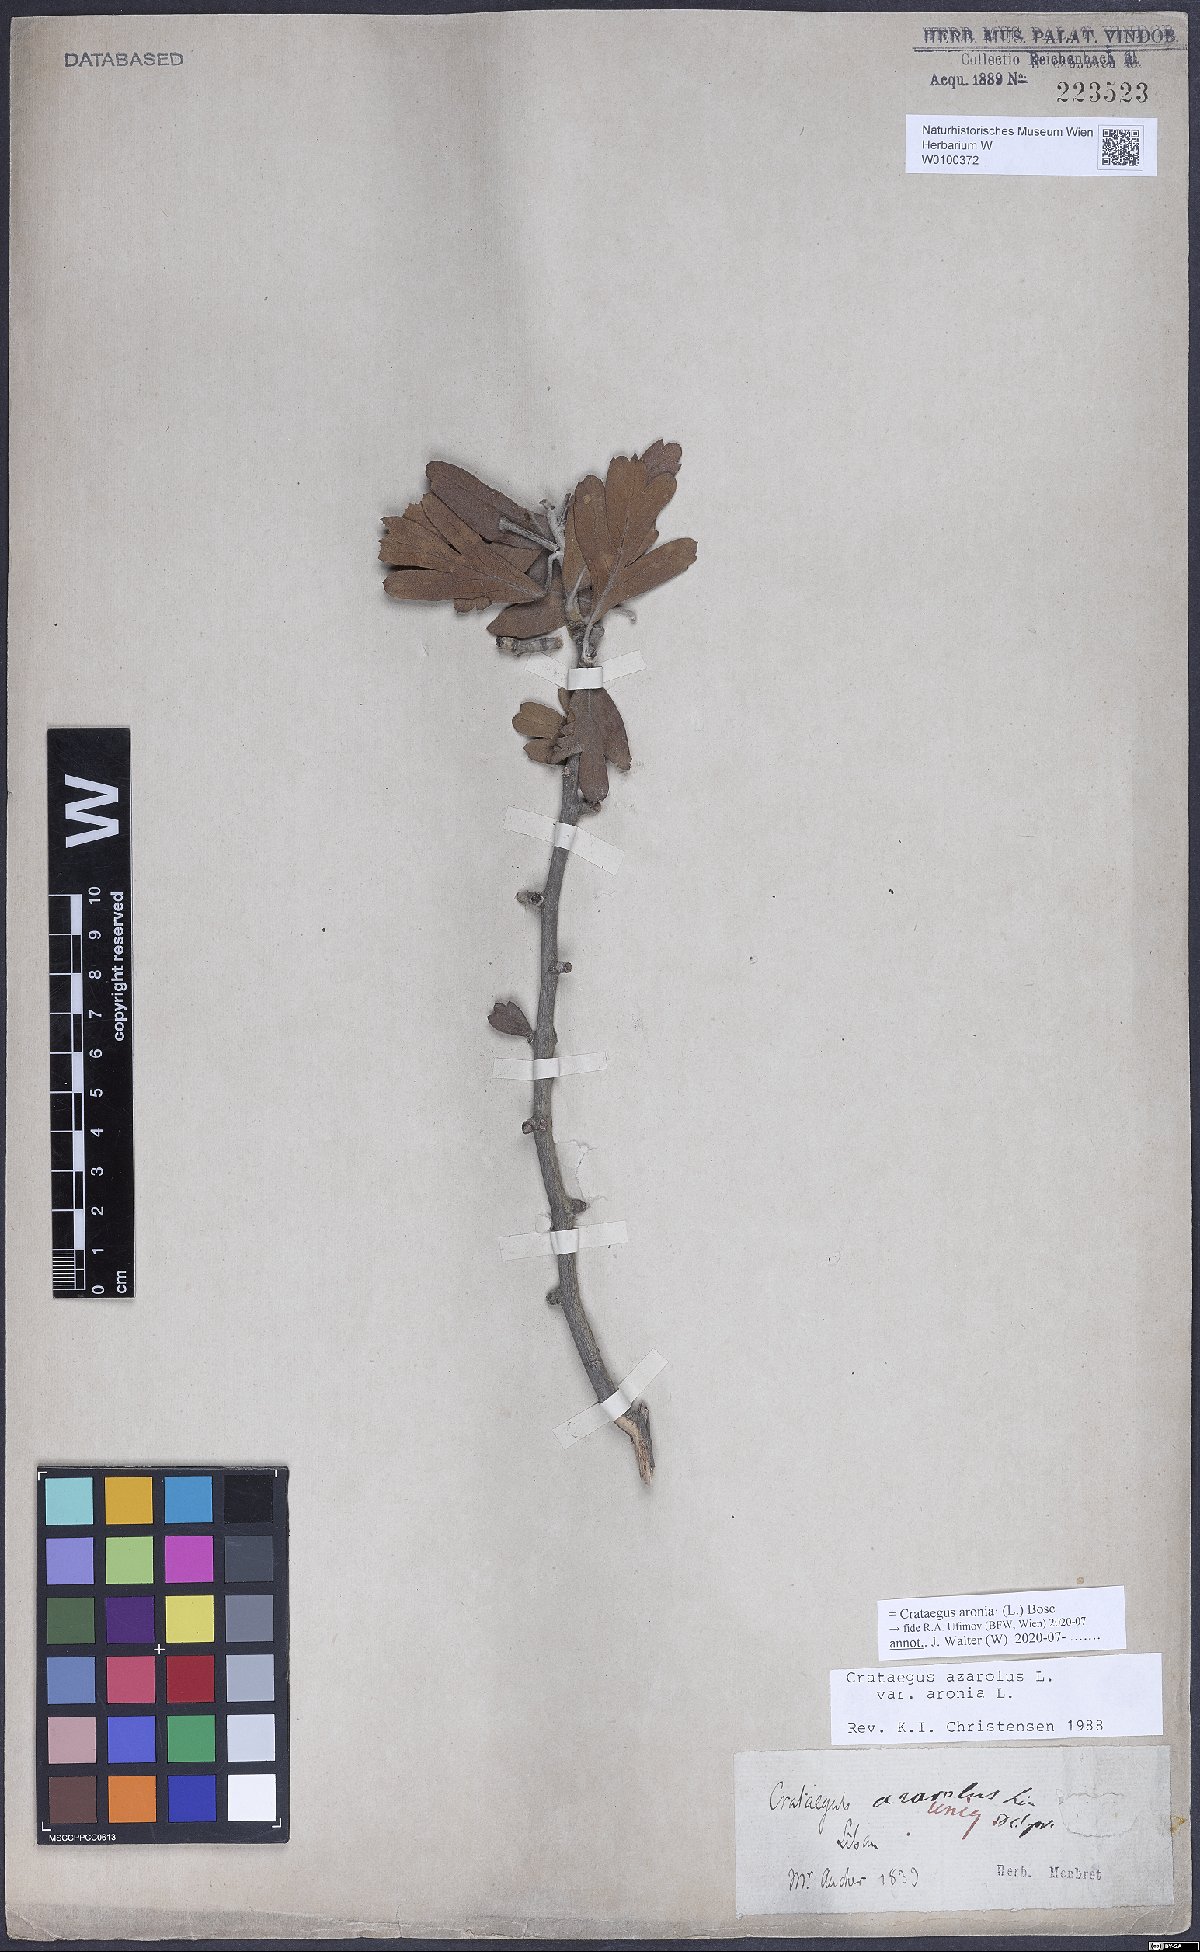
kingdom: Plantae
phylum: Tracheophyta
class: Magnoliopsida
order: Rosales
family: Rosaceae
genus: Crataegus
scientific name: Crataegus azarolus
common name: Azarole
